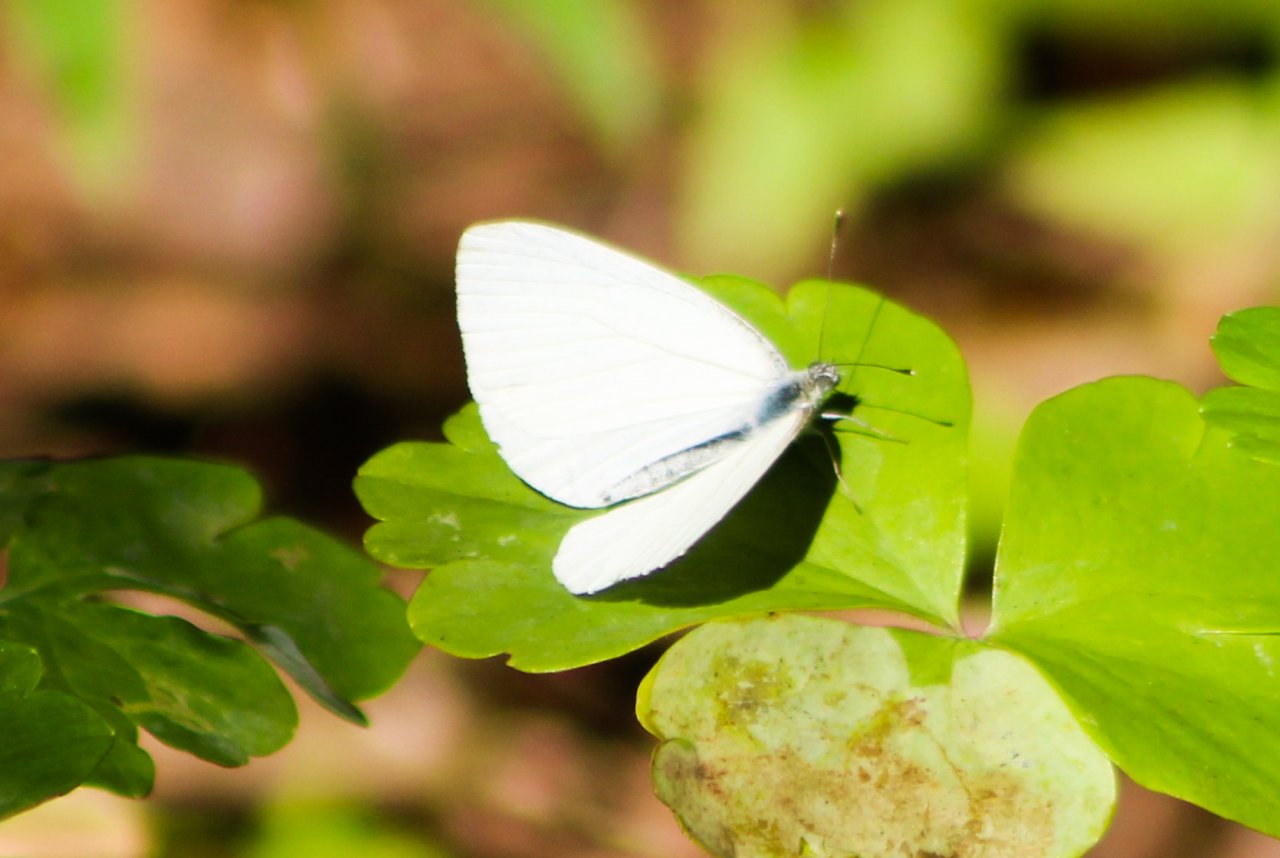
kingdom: Animalia
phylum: Arthropoda
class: Insecta
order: Lepidoptera
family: Pieridae
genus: Pieris
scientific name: Pieris oleracea
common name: Mustard White
